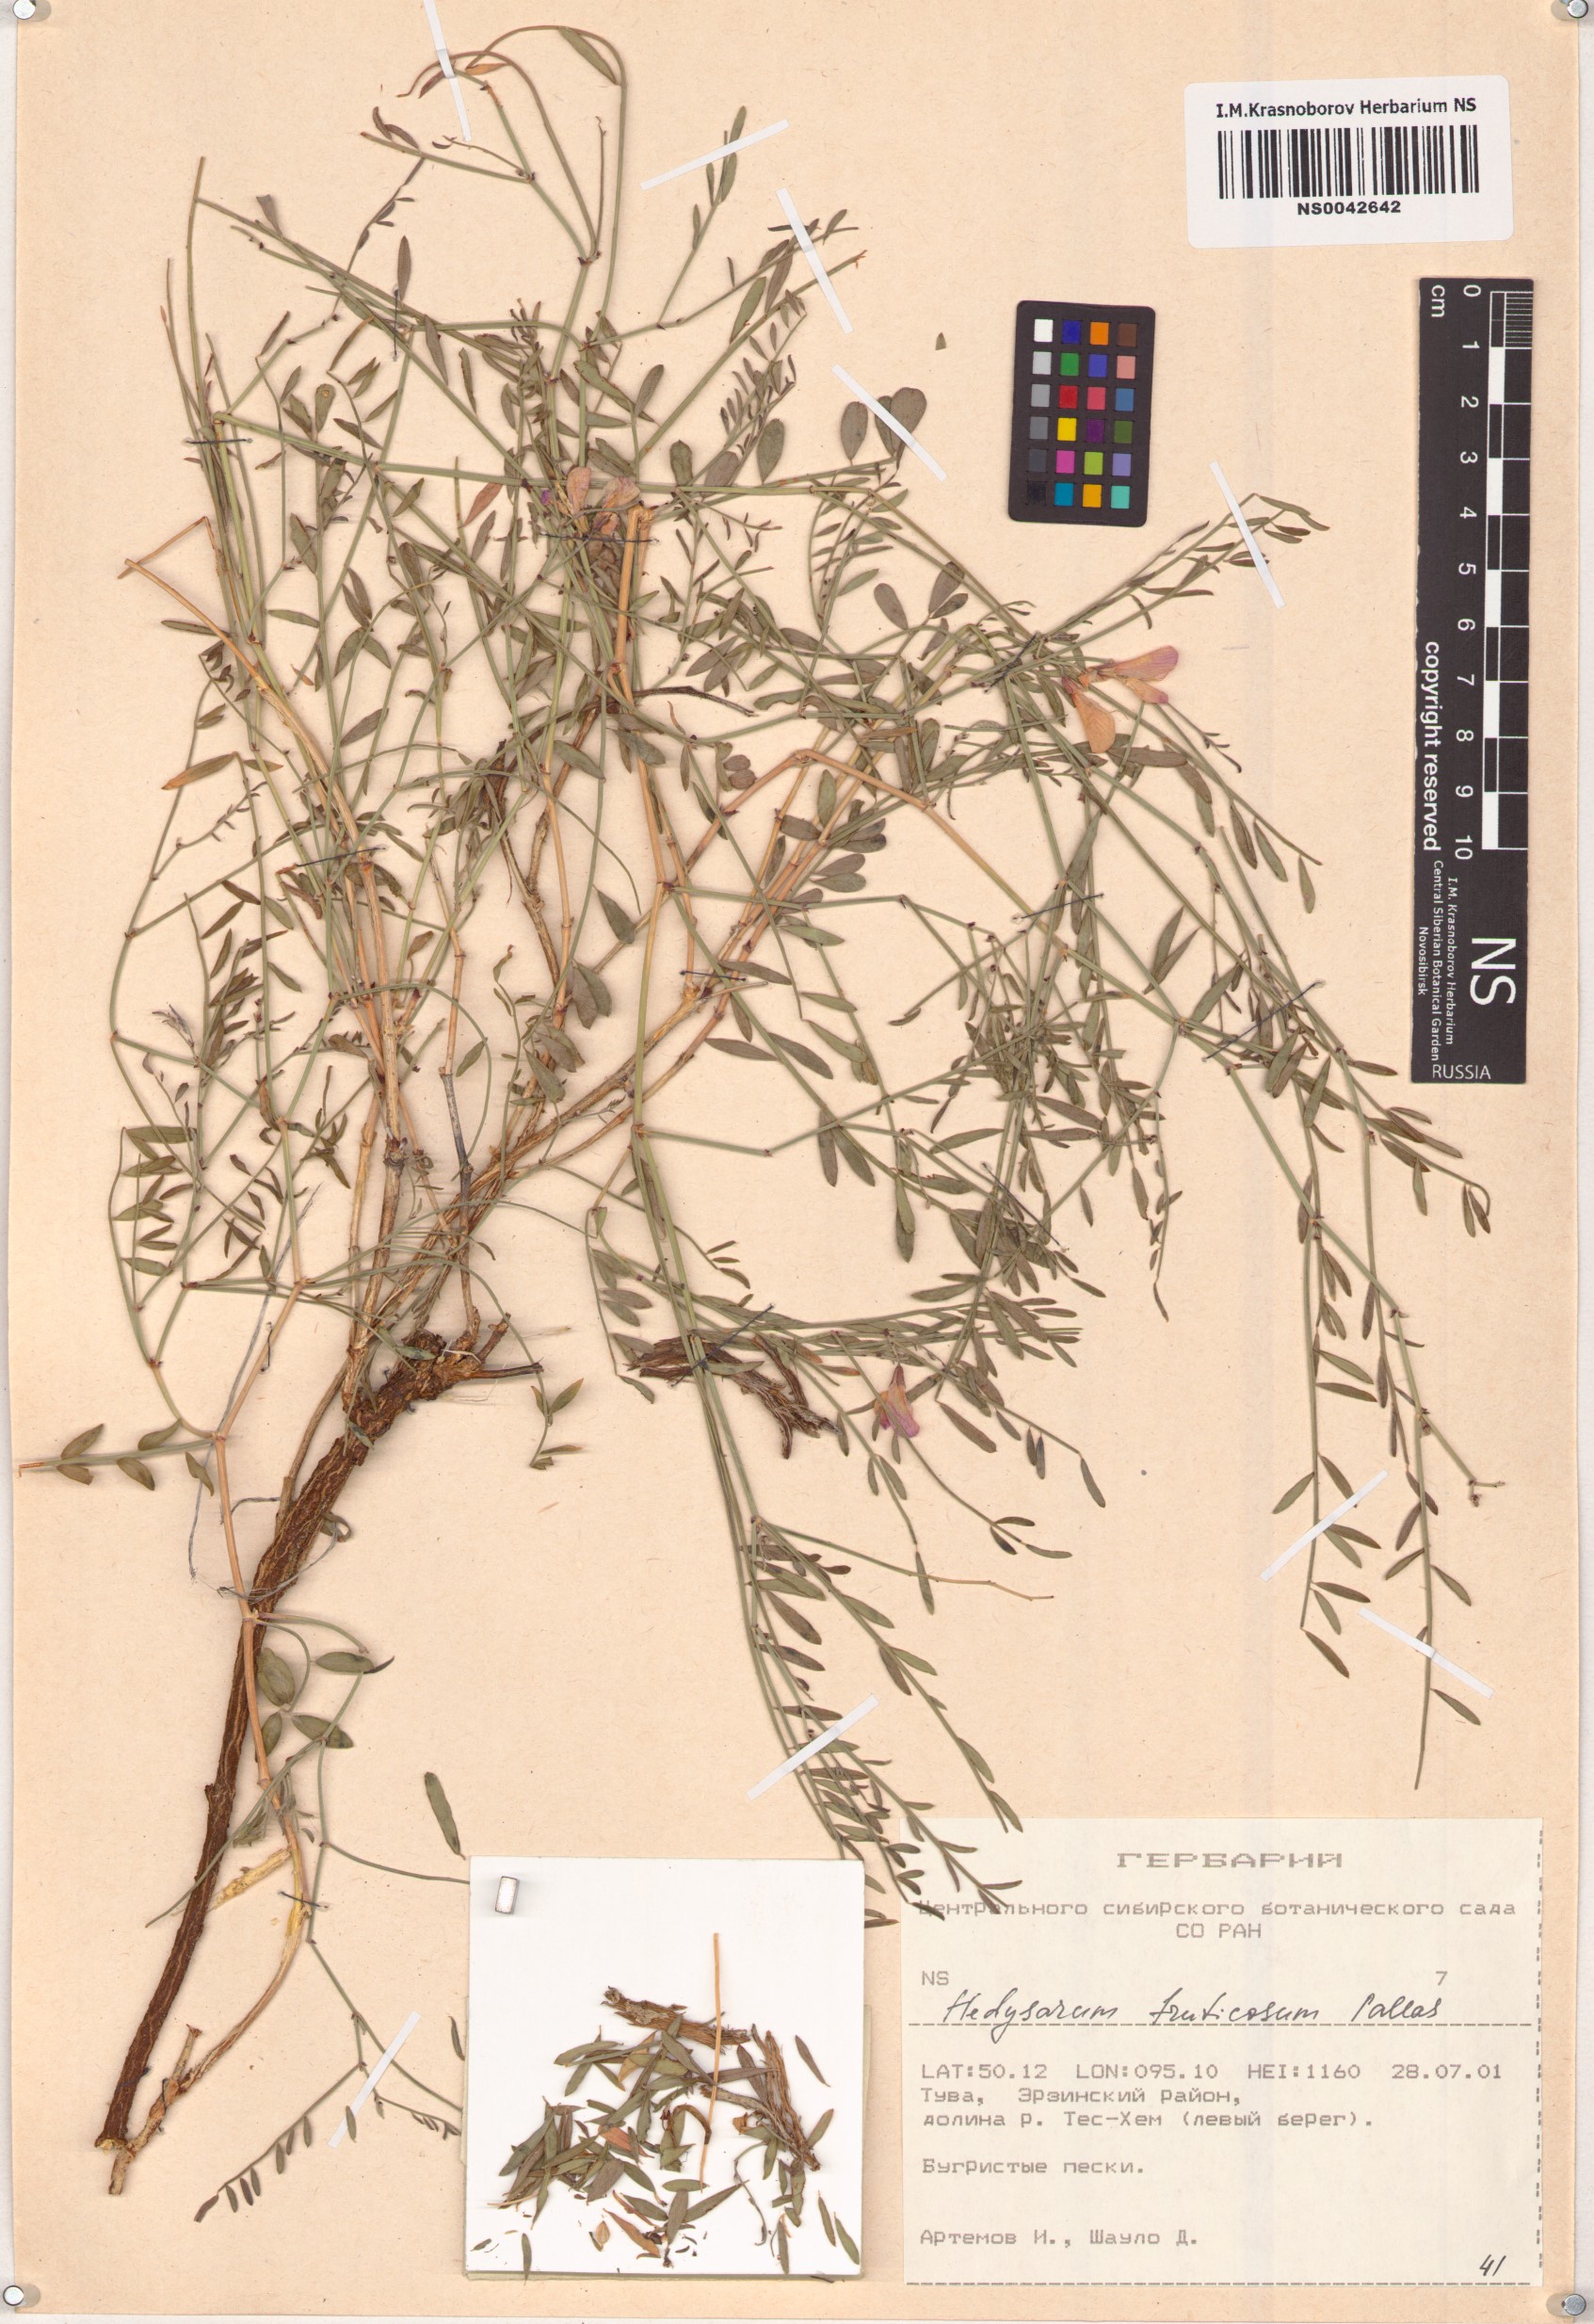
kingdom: Plantae
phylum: Tracheophyta
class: Magnoliopsida
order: Fabales
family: Fabaceae
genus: Corethrodendron
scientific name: Corethrodendron fruticosum
